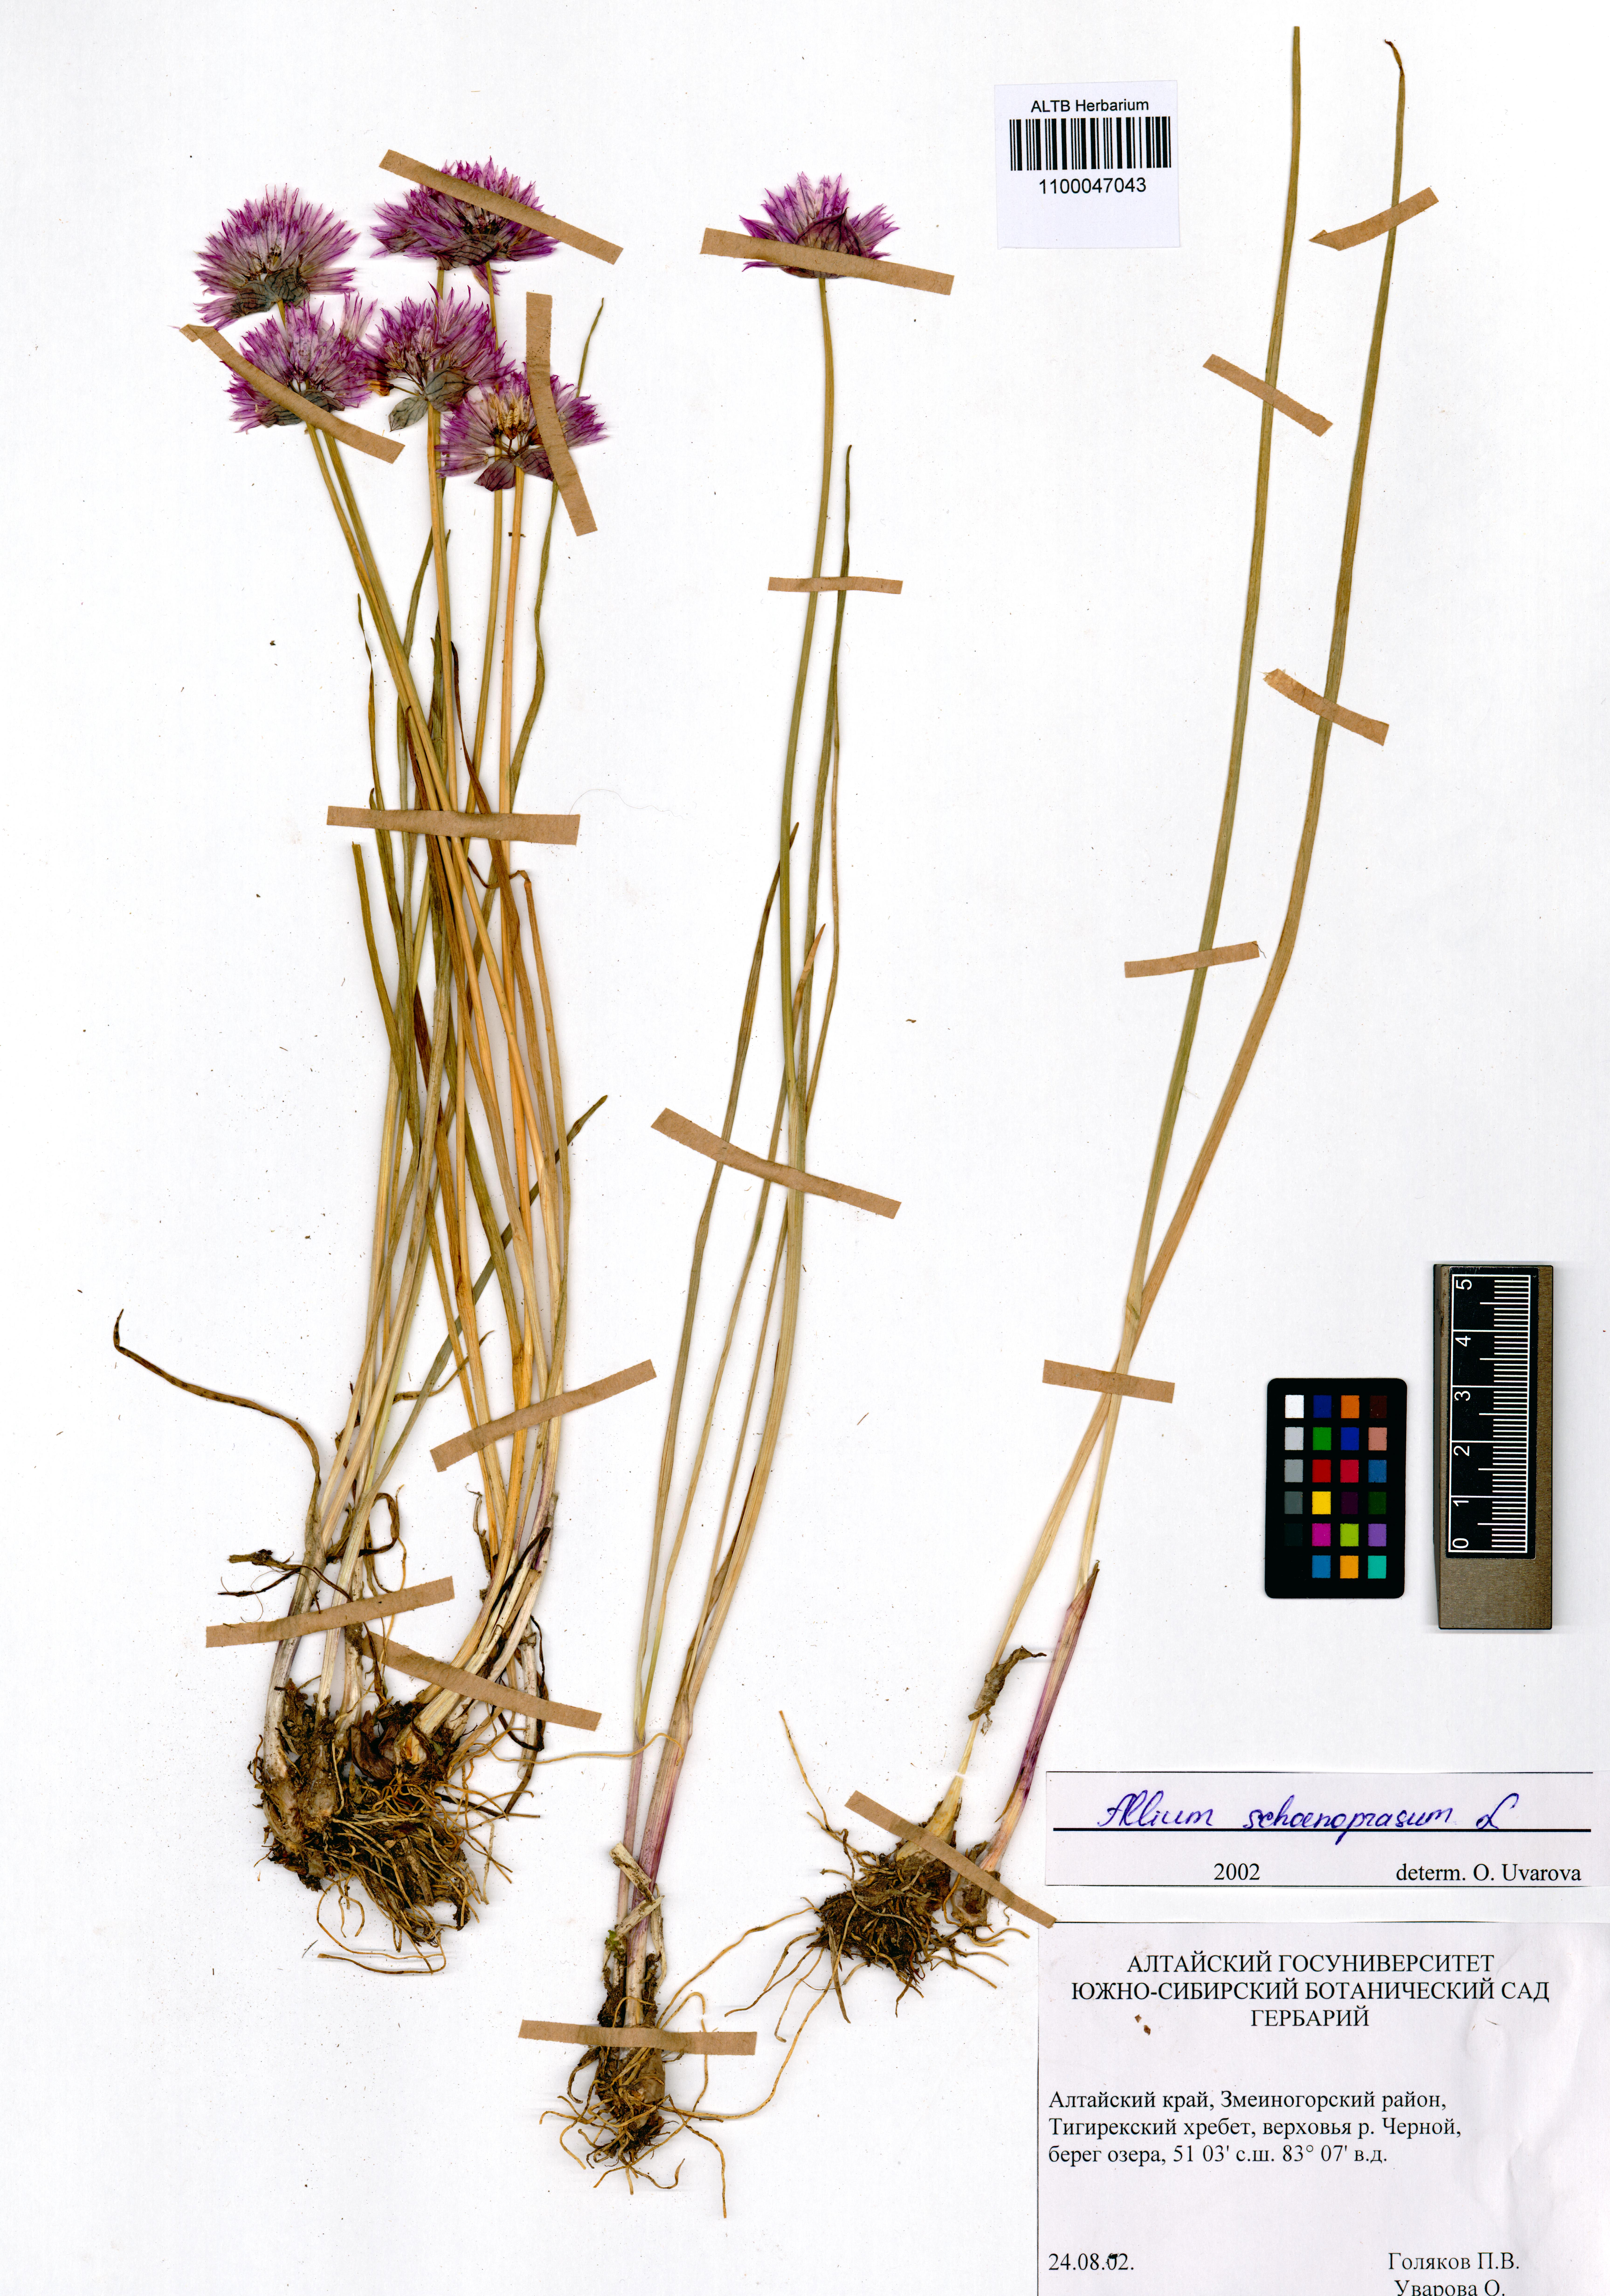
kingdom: Plantae
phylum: Tracheophyta
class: Liliopsida
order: Asparagales
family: Amaryllidaceae
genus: Allium
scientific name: Allium schoenoprasum
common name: Chives
